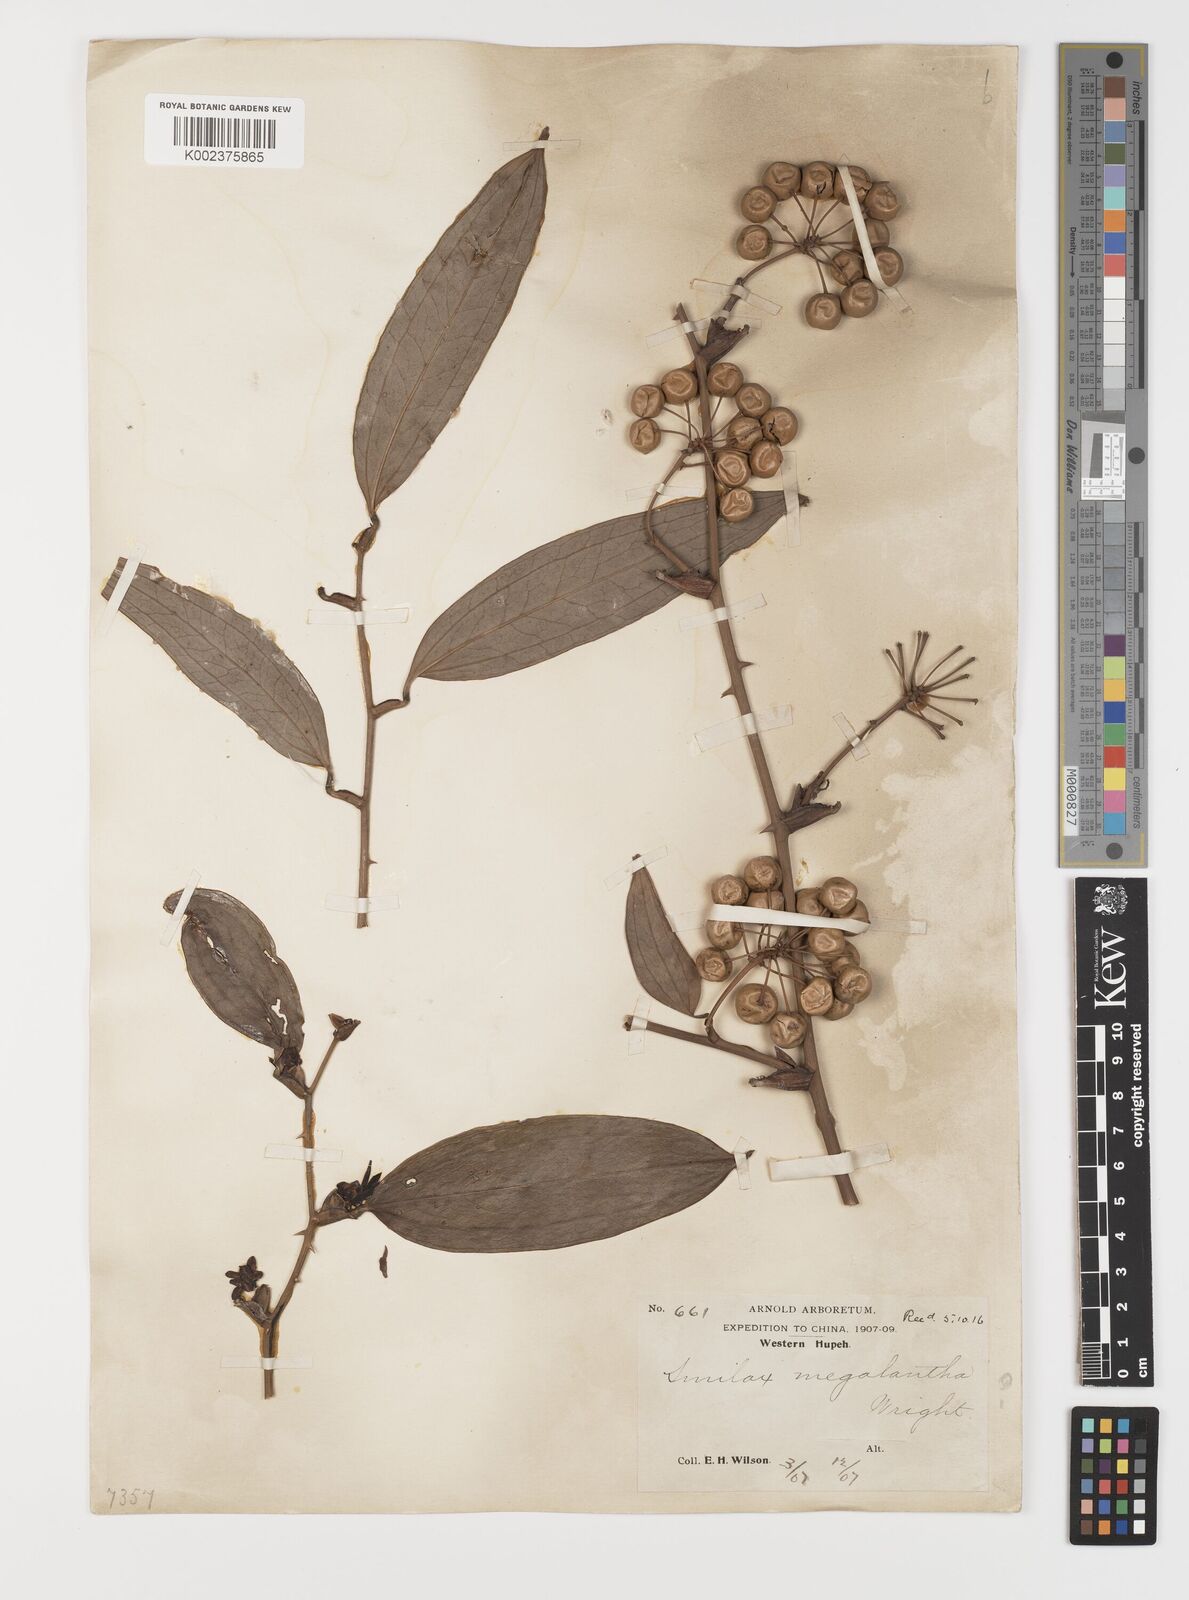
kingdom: Plantae
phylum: Tracheophyta
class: Liliopsida
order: Liliales
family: Smilacaceae
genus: Smilax
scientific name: Smilax megalantha
